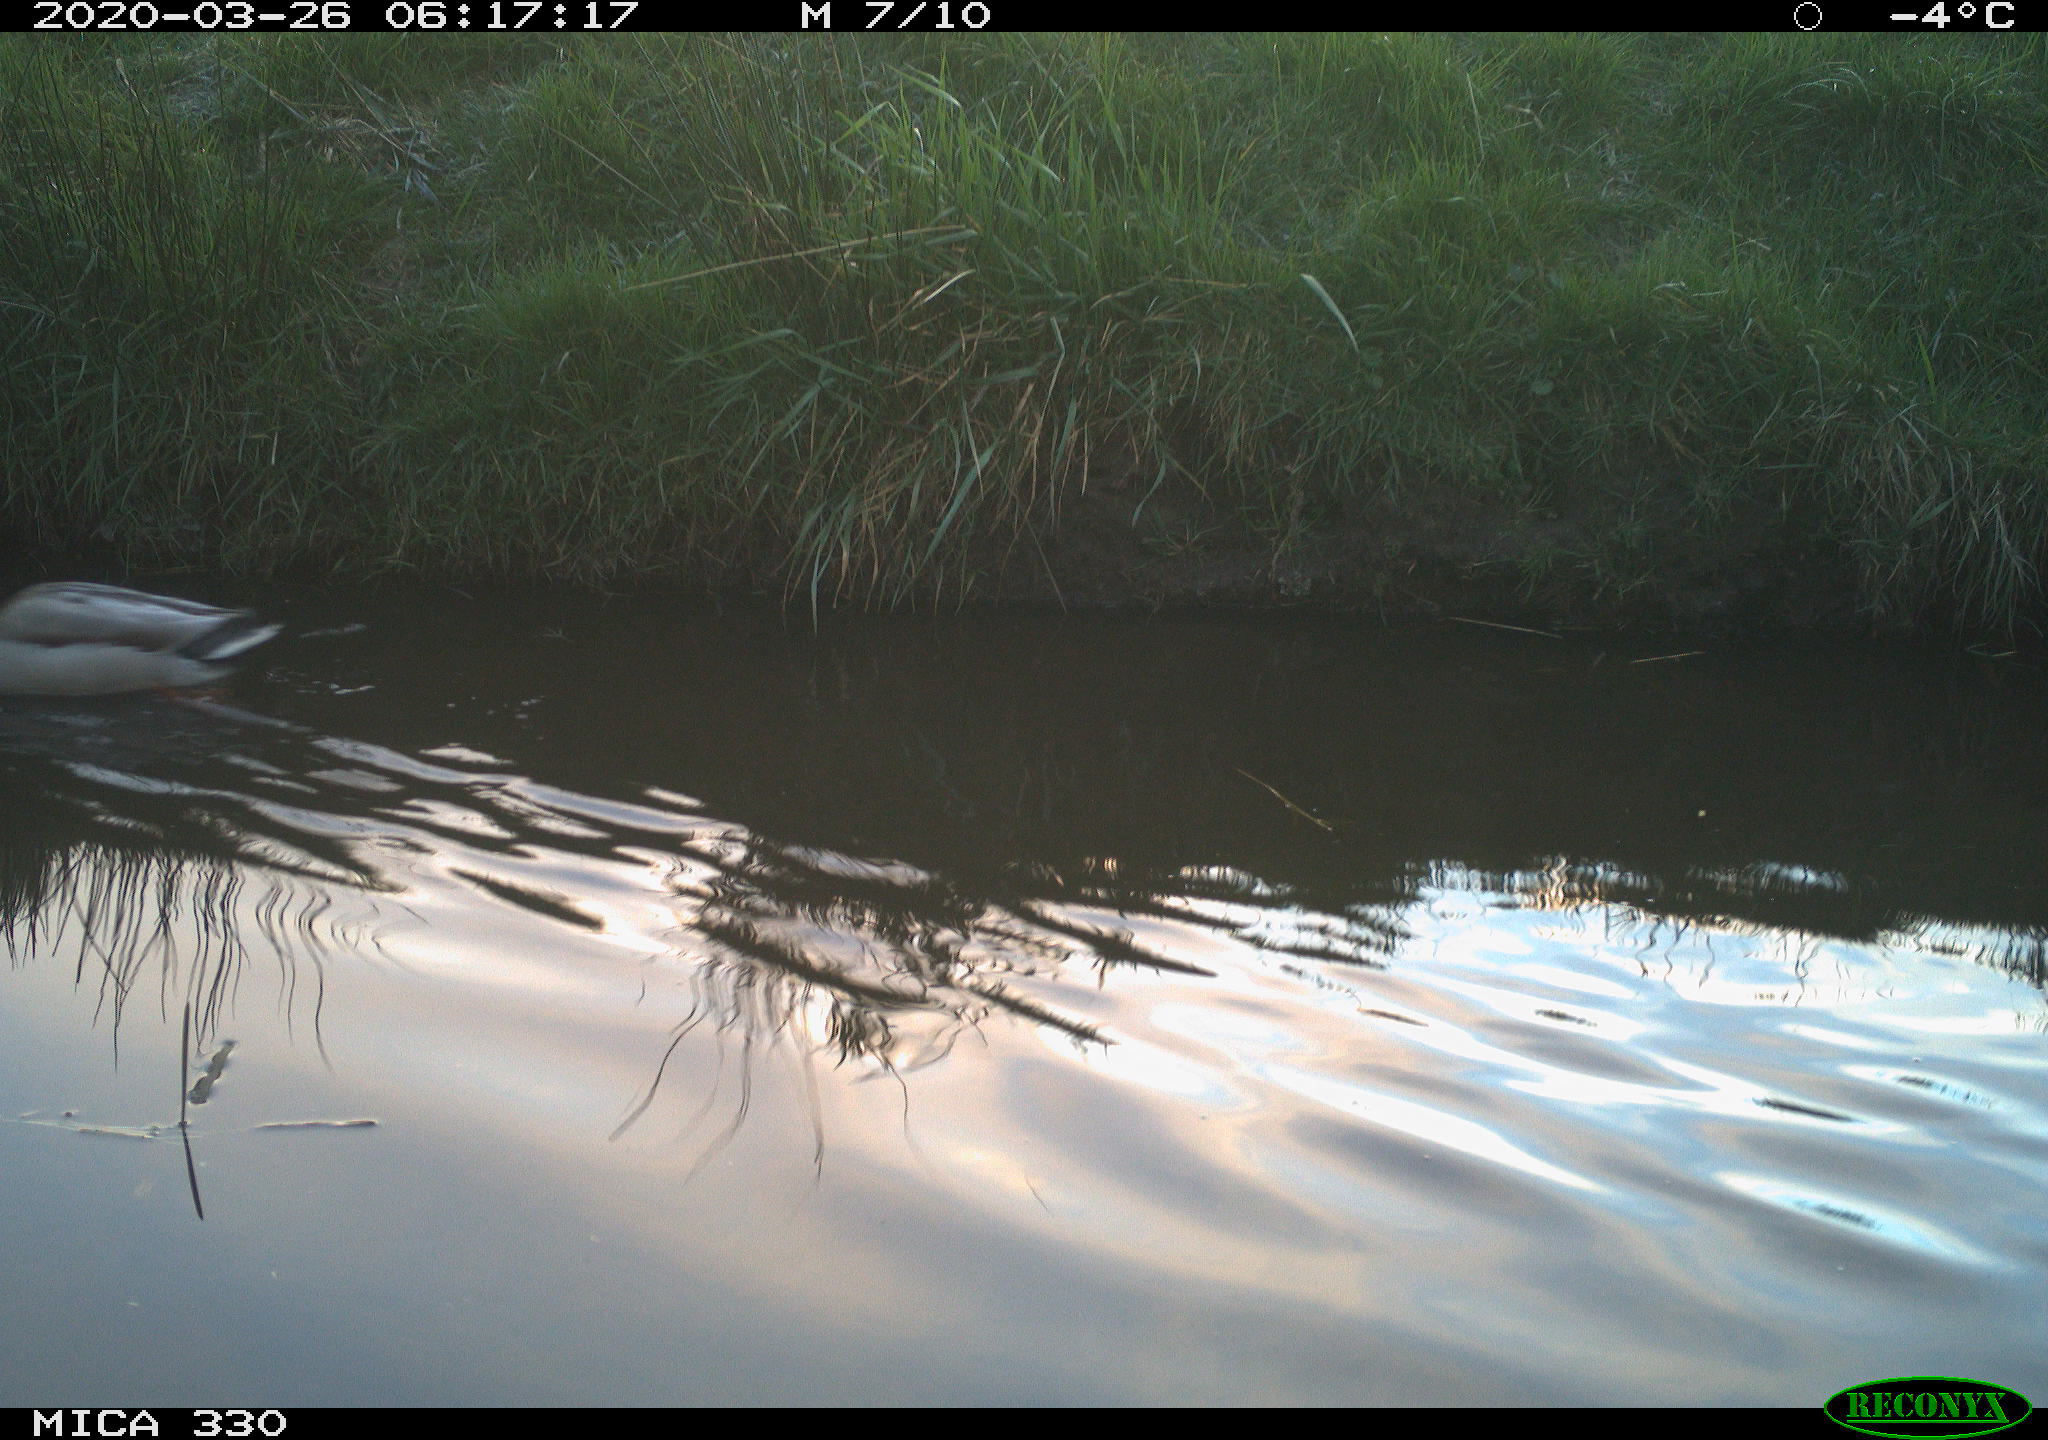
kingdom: Animalia
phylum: Chordata
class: Aves
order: Anseriformes
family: Anatidae
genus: Anas
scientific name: Anas platyrhynchos
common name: Mallard
